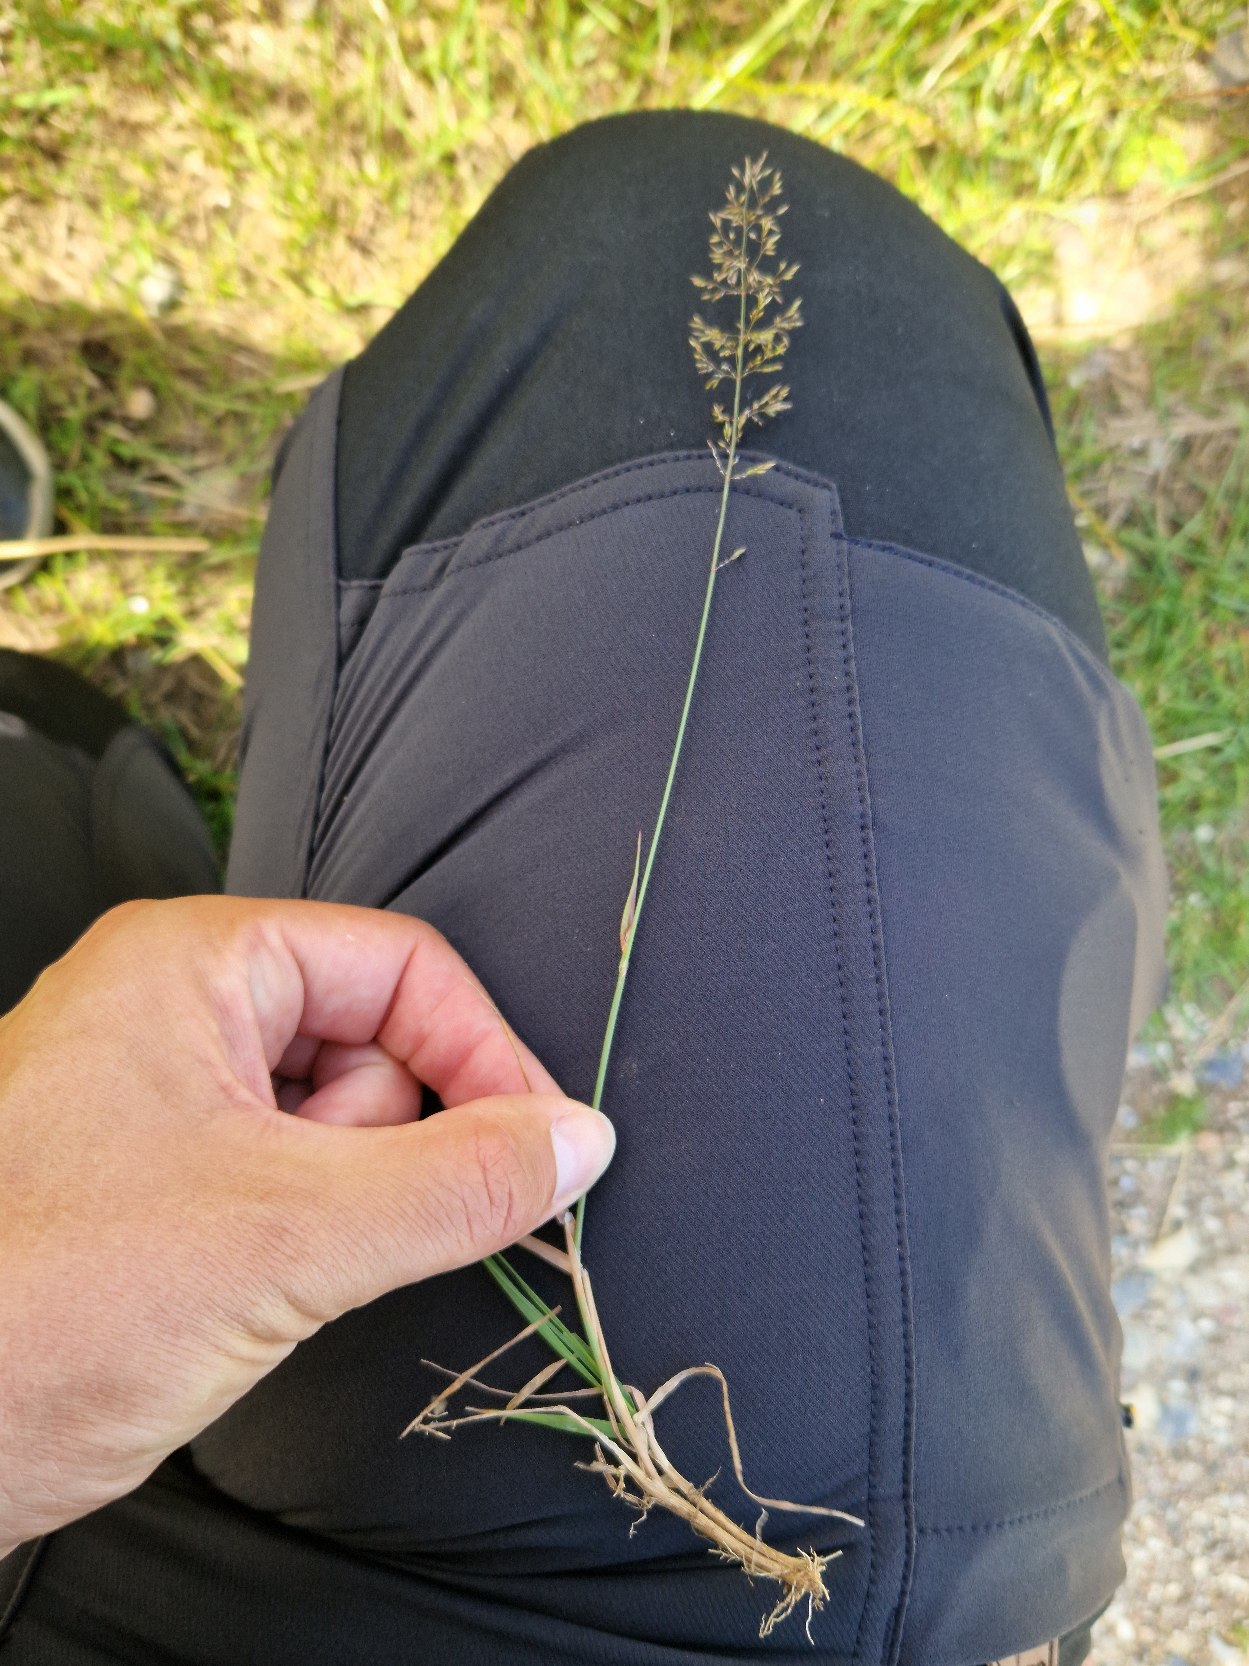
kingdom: Plantae
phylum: Tracheophyta
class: Liliopsida
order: Poales
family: Poaceae
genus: Agrostis
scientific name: Agrostis capillaris
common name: Almindelig hvene
